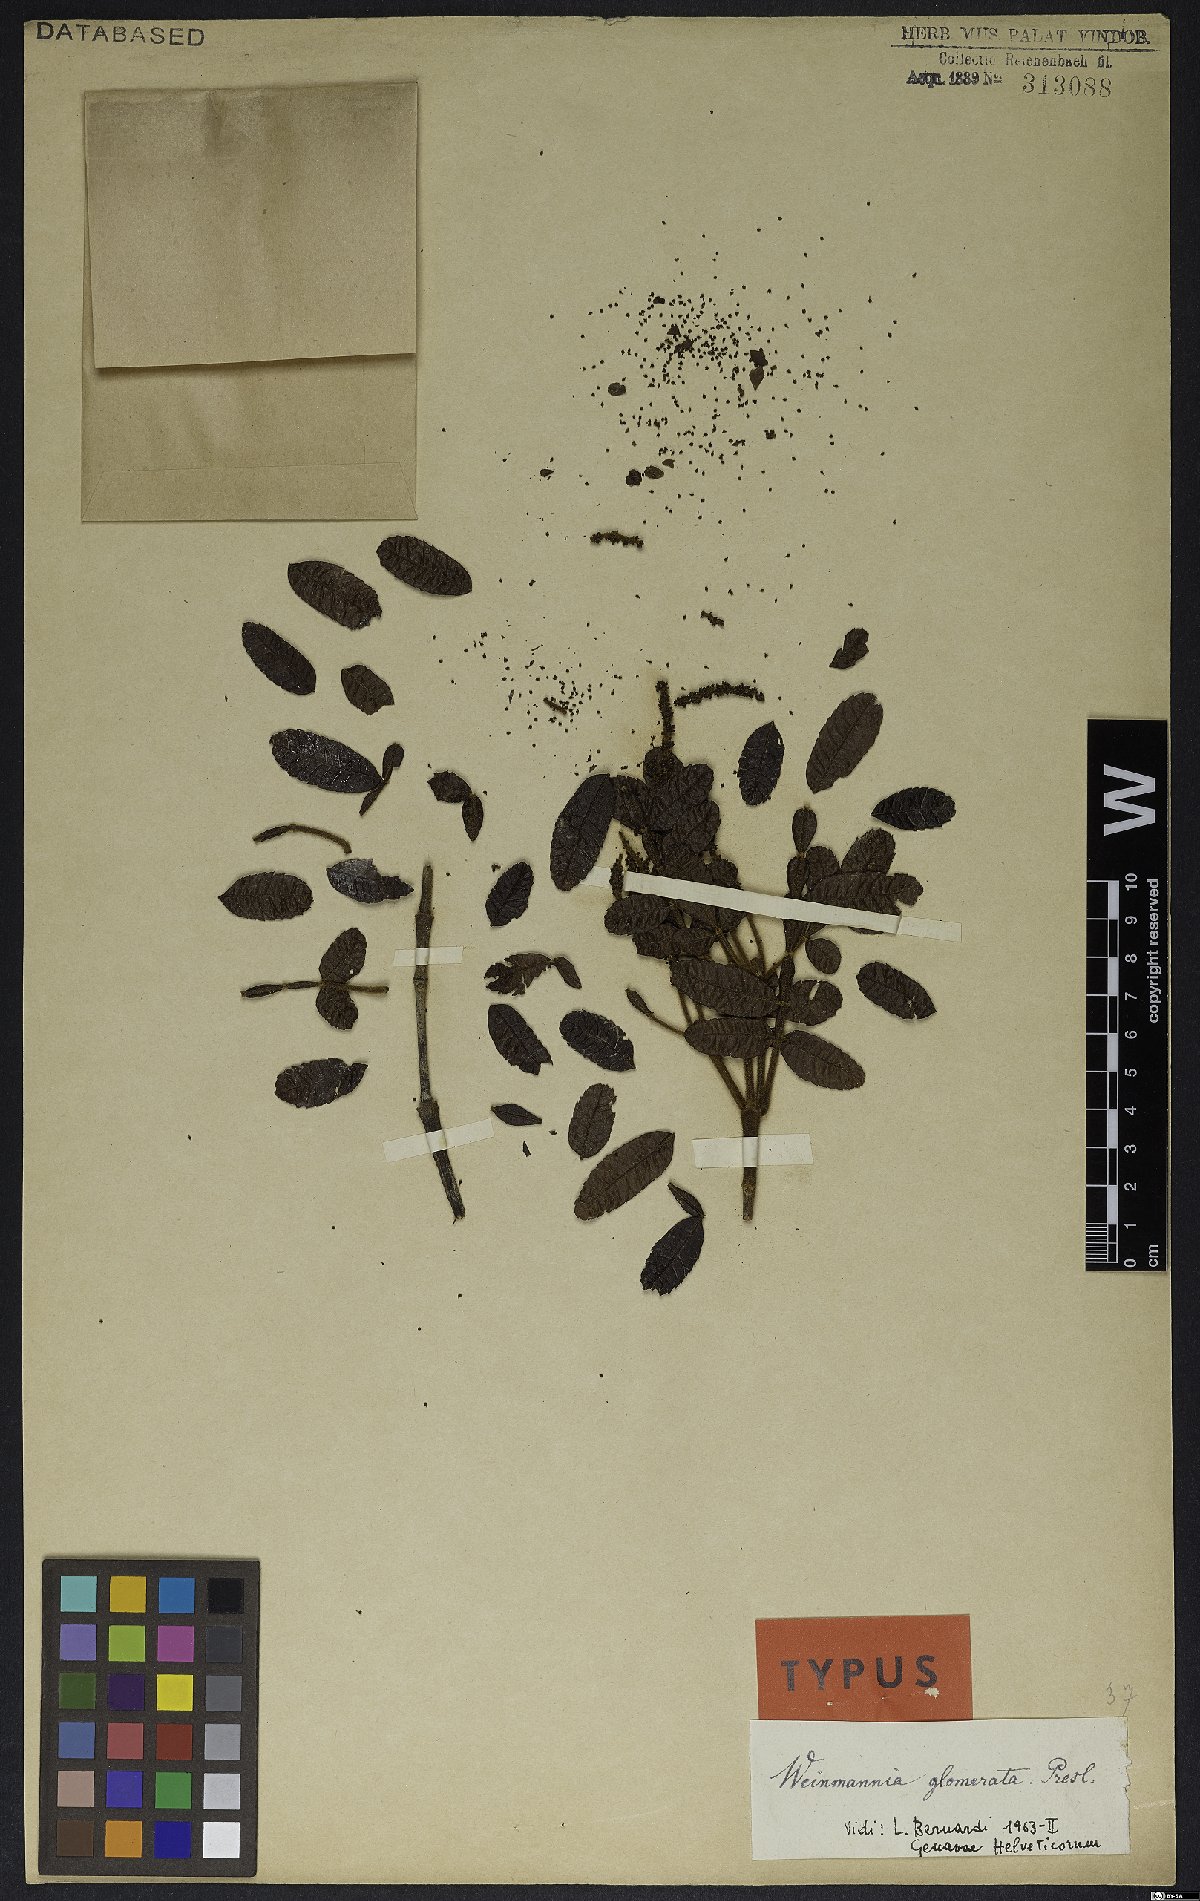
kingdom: Plantae
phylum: Tracheophyta
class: Magnoliopsida
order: Oxalidales
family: Cunoniaceae
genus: Weinmannia
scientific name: Weinmannia glomerata
